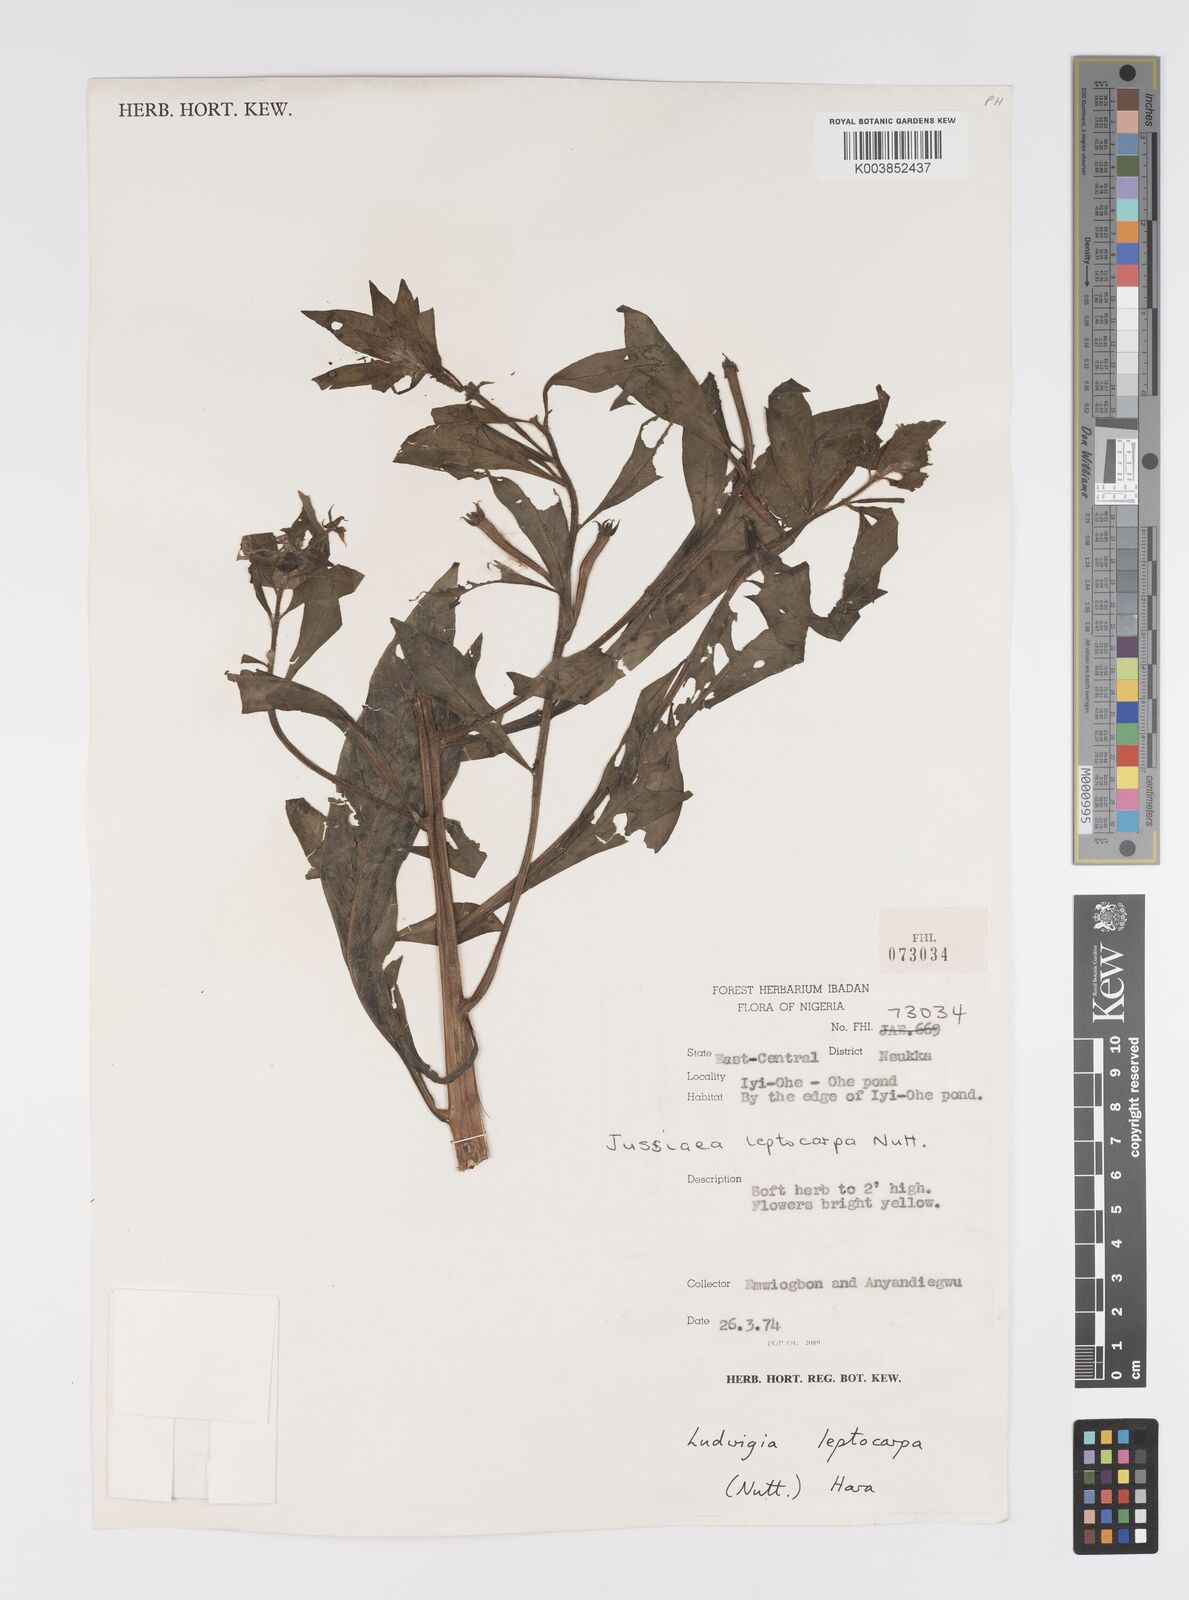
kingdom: Plantae
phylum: Tracheophyta
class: Magnoliopsida
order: Myrtales
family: Onagraceae
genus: Ludwigia
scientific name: Ludwigia leptocarpa
